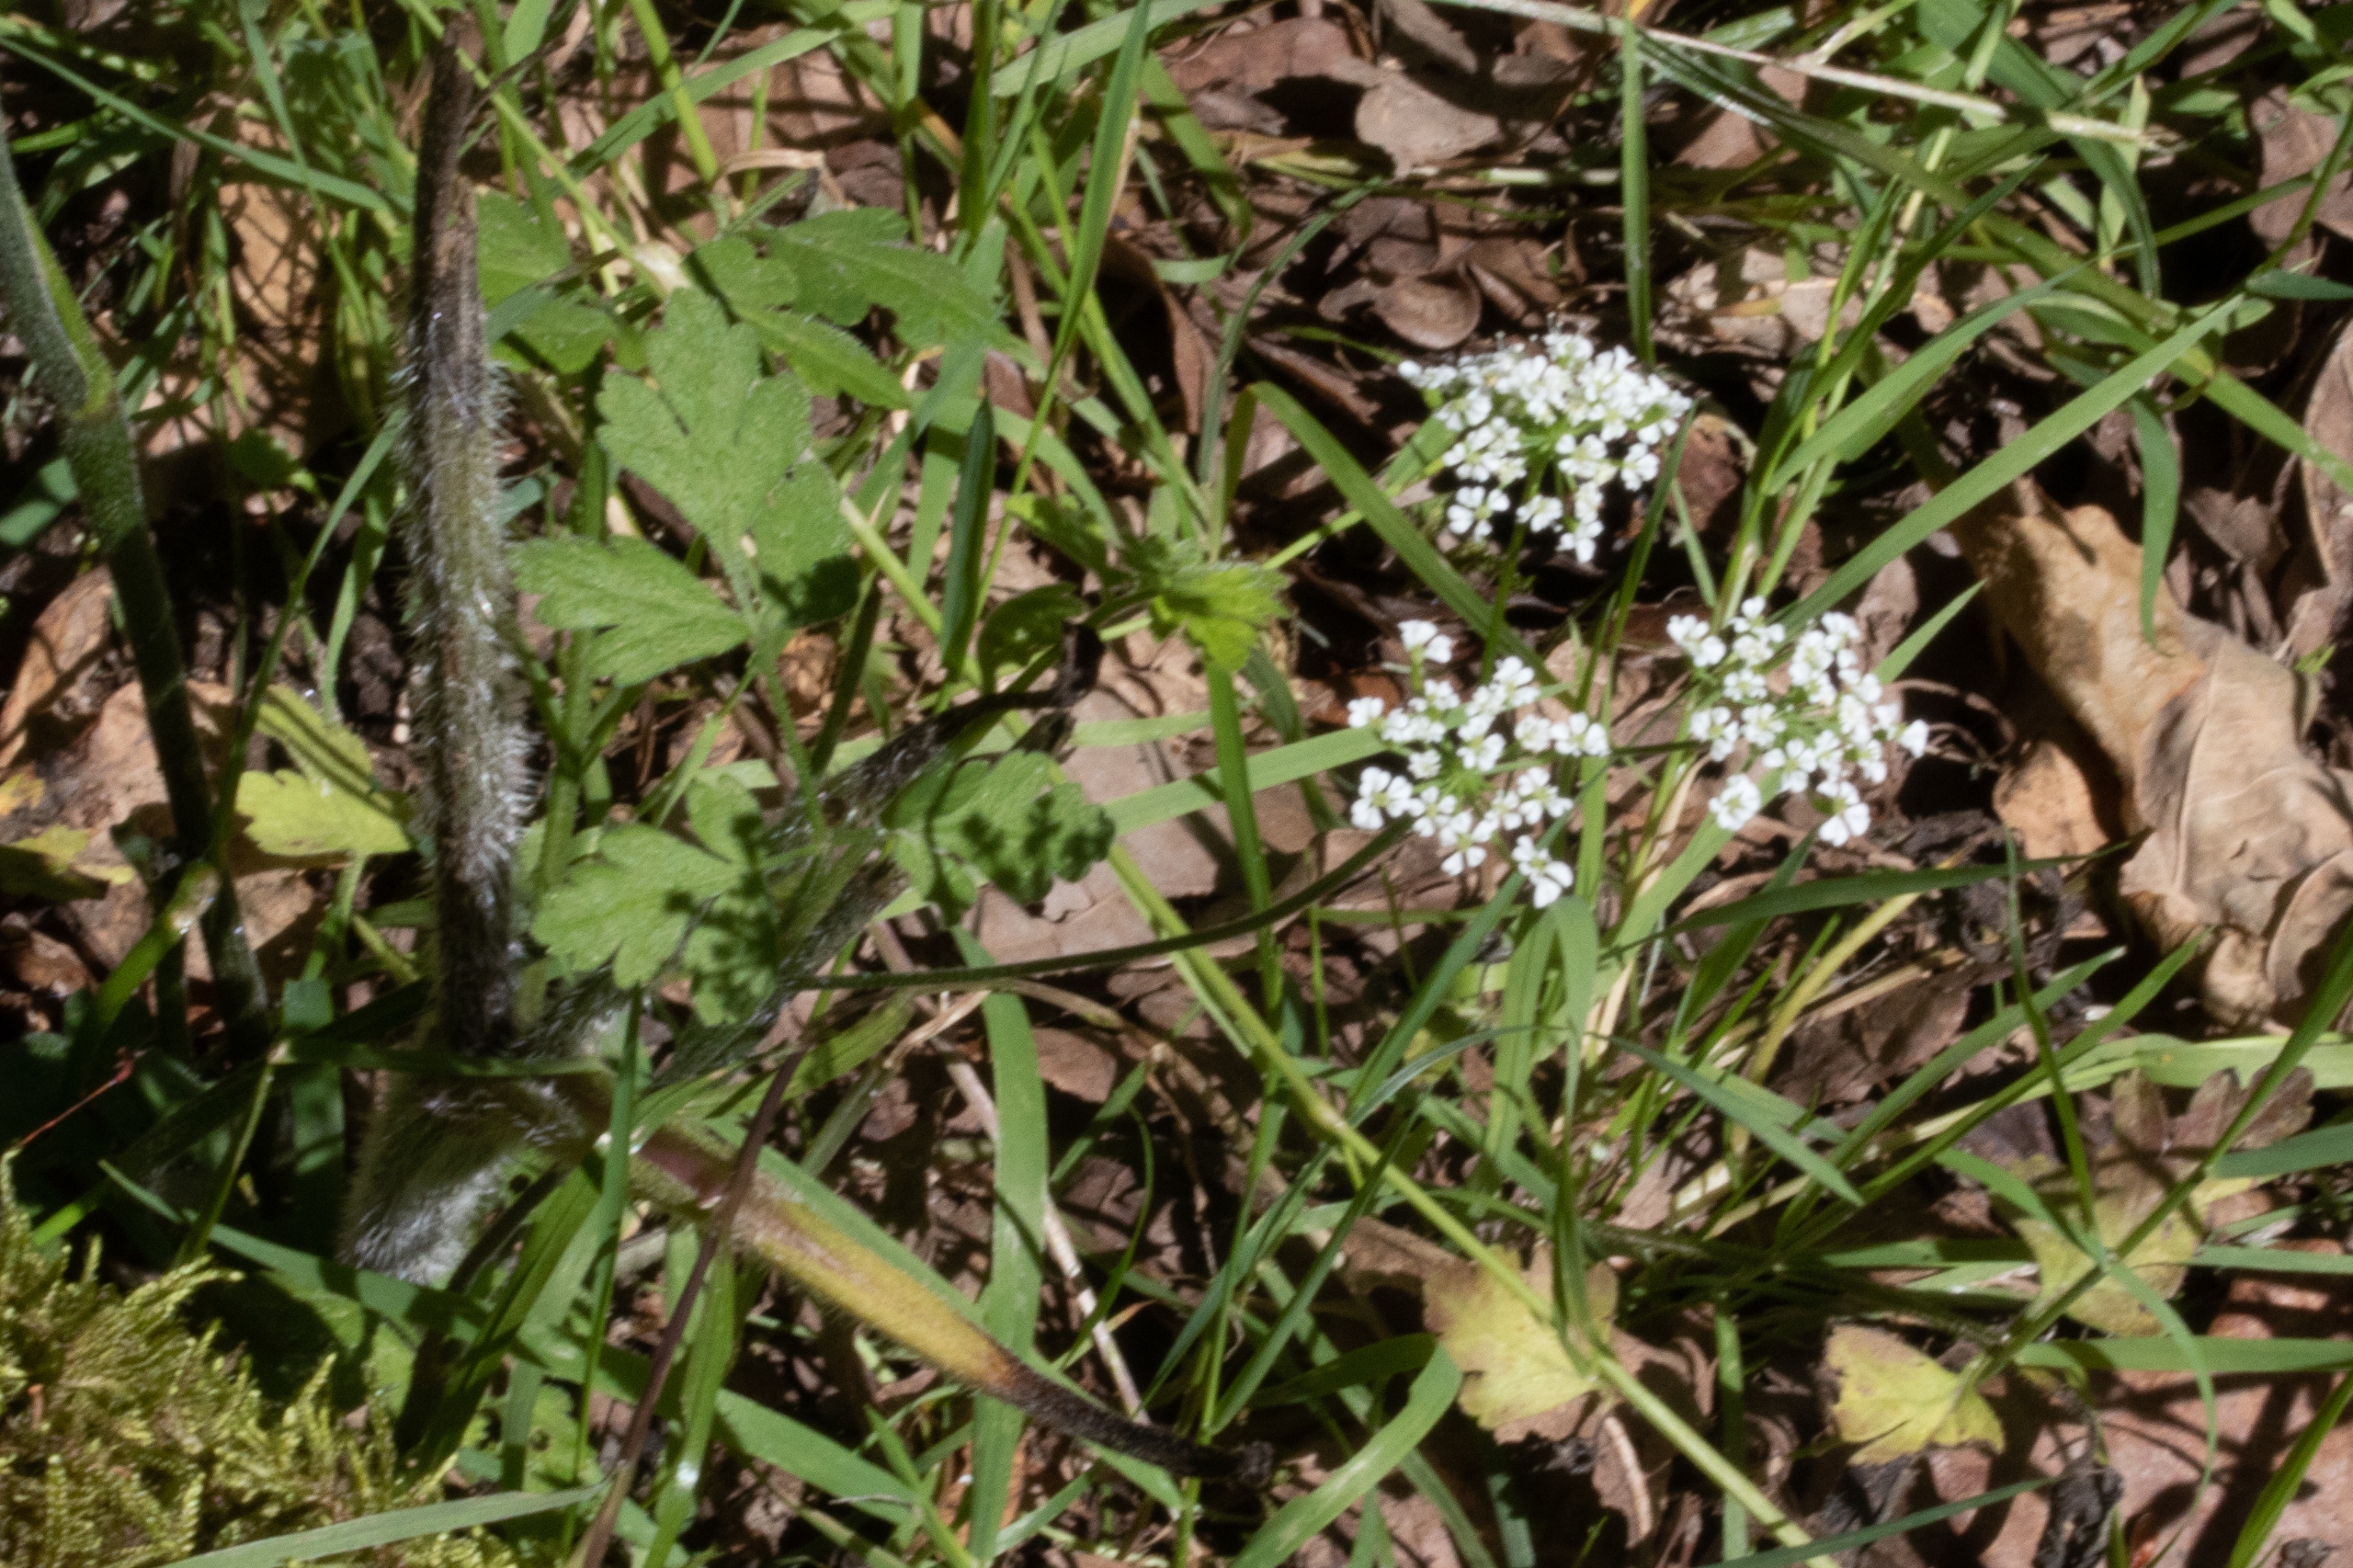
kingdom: Plantae
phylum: Tracheophyta
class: Magnoliopsida
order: Apiales
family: Apiaceae
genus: Chaerophyllum
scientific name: Chaerophyllum temulum
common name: Almindelig hulsvøb
